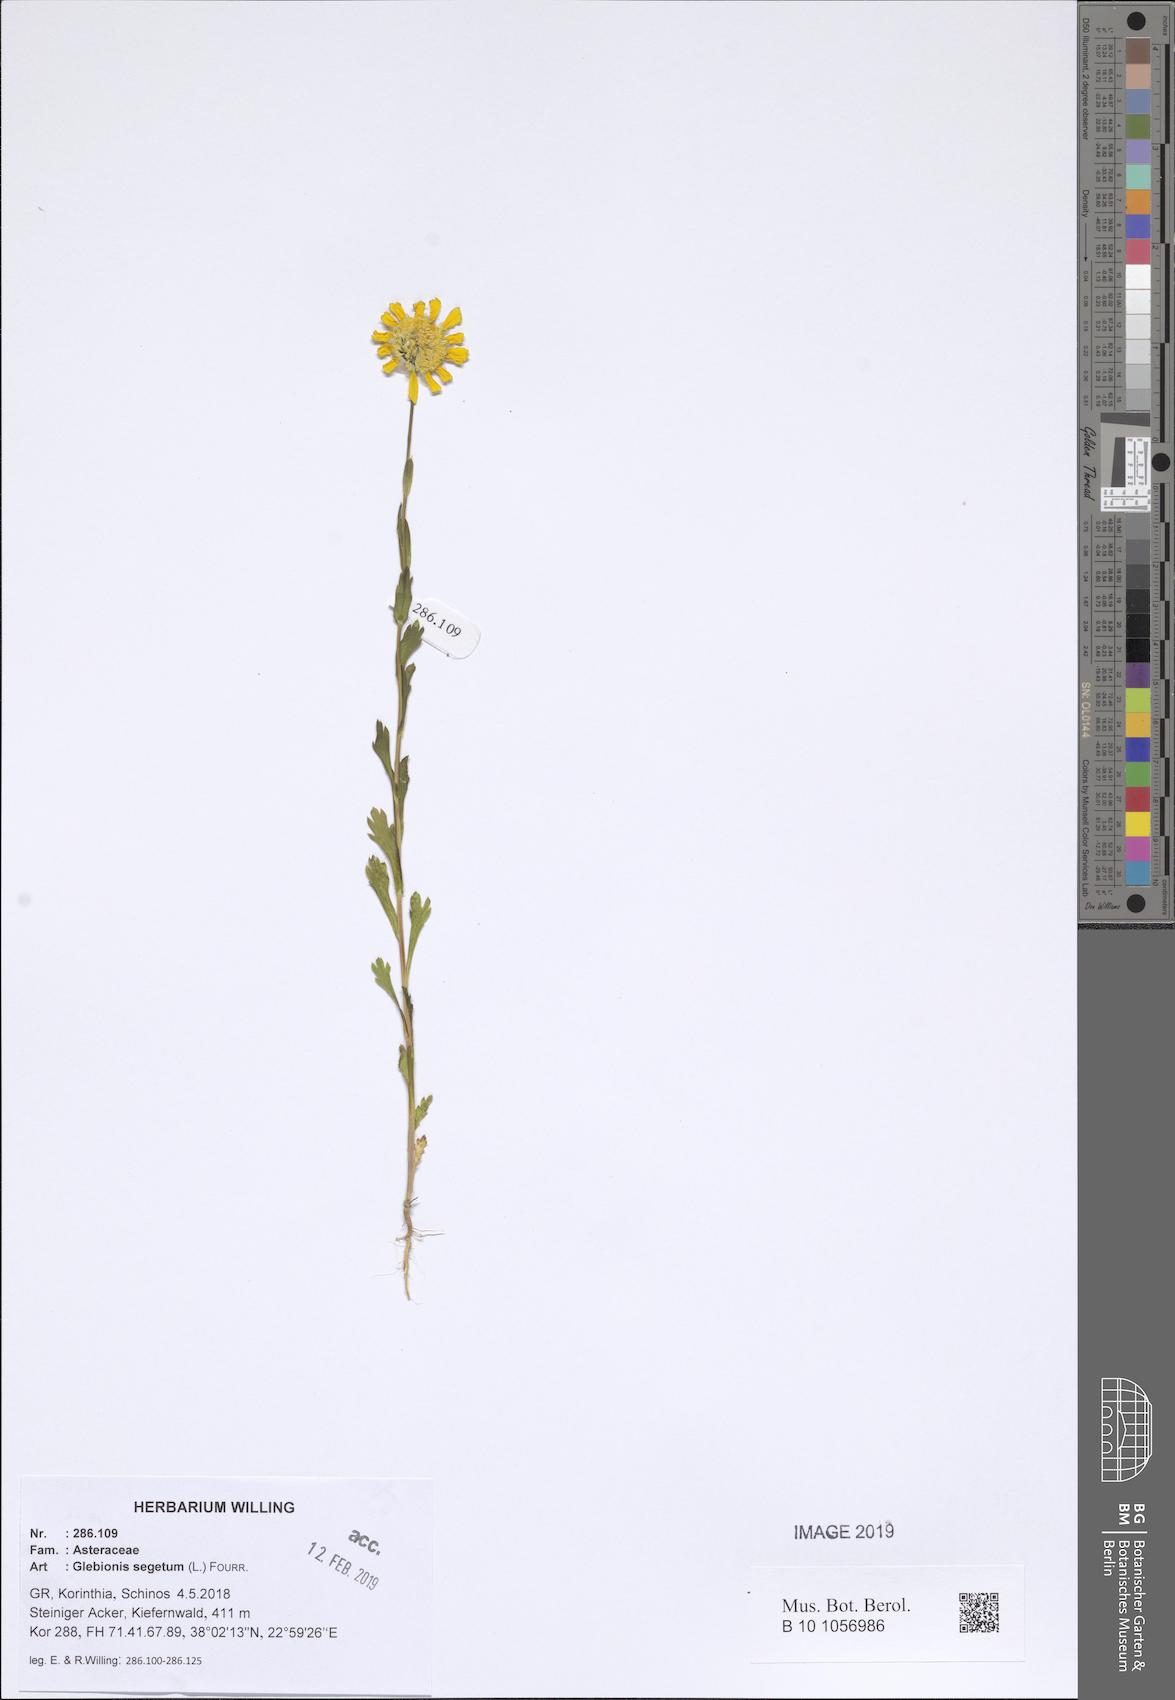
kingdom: Plantae
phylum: Tracheophyta
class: Magnoliopsida
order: Asterales
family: Asteraceae
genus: Glebionis
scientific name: Glebionis segetum
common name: Corndaisy
